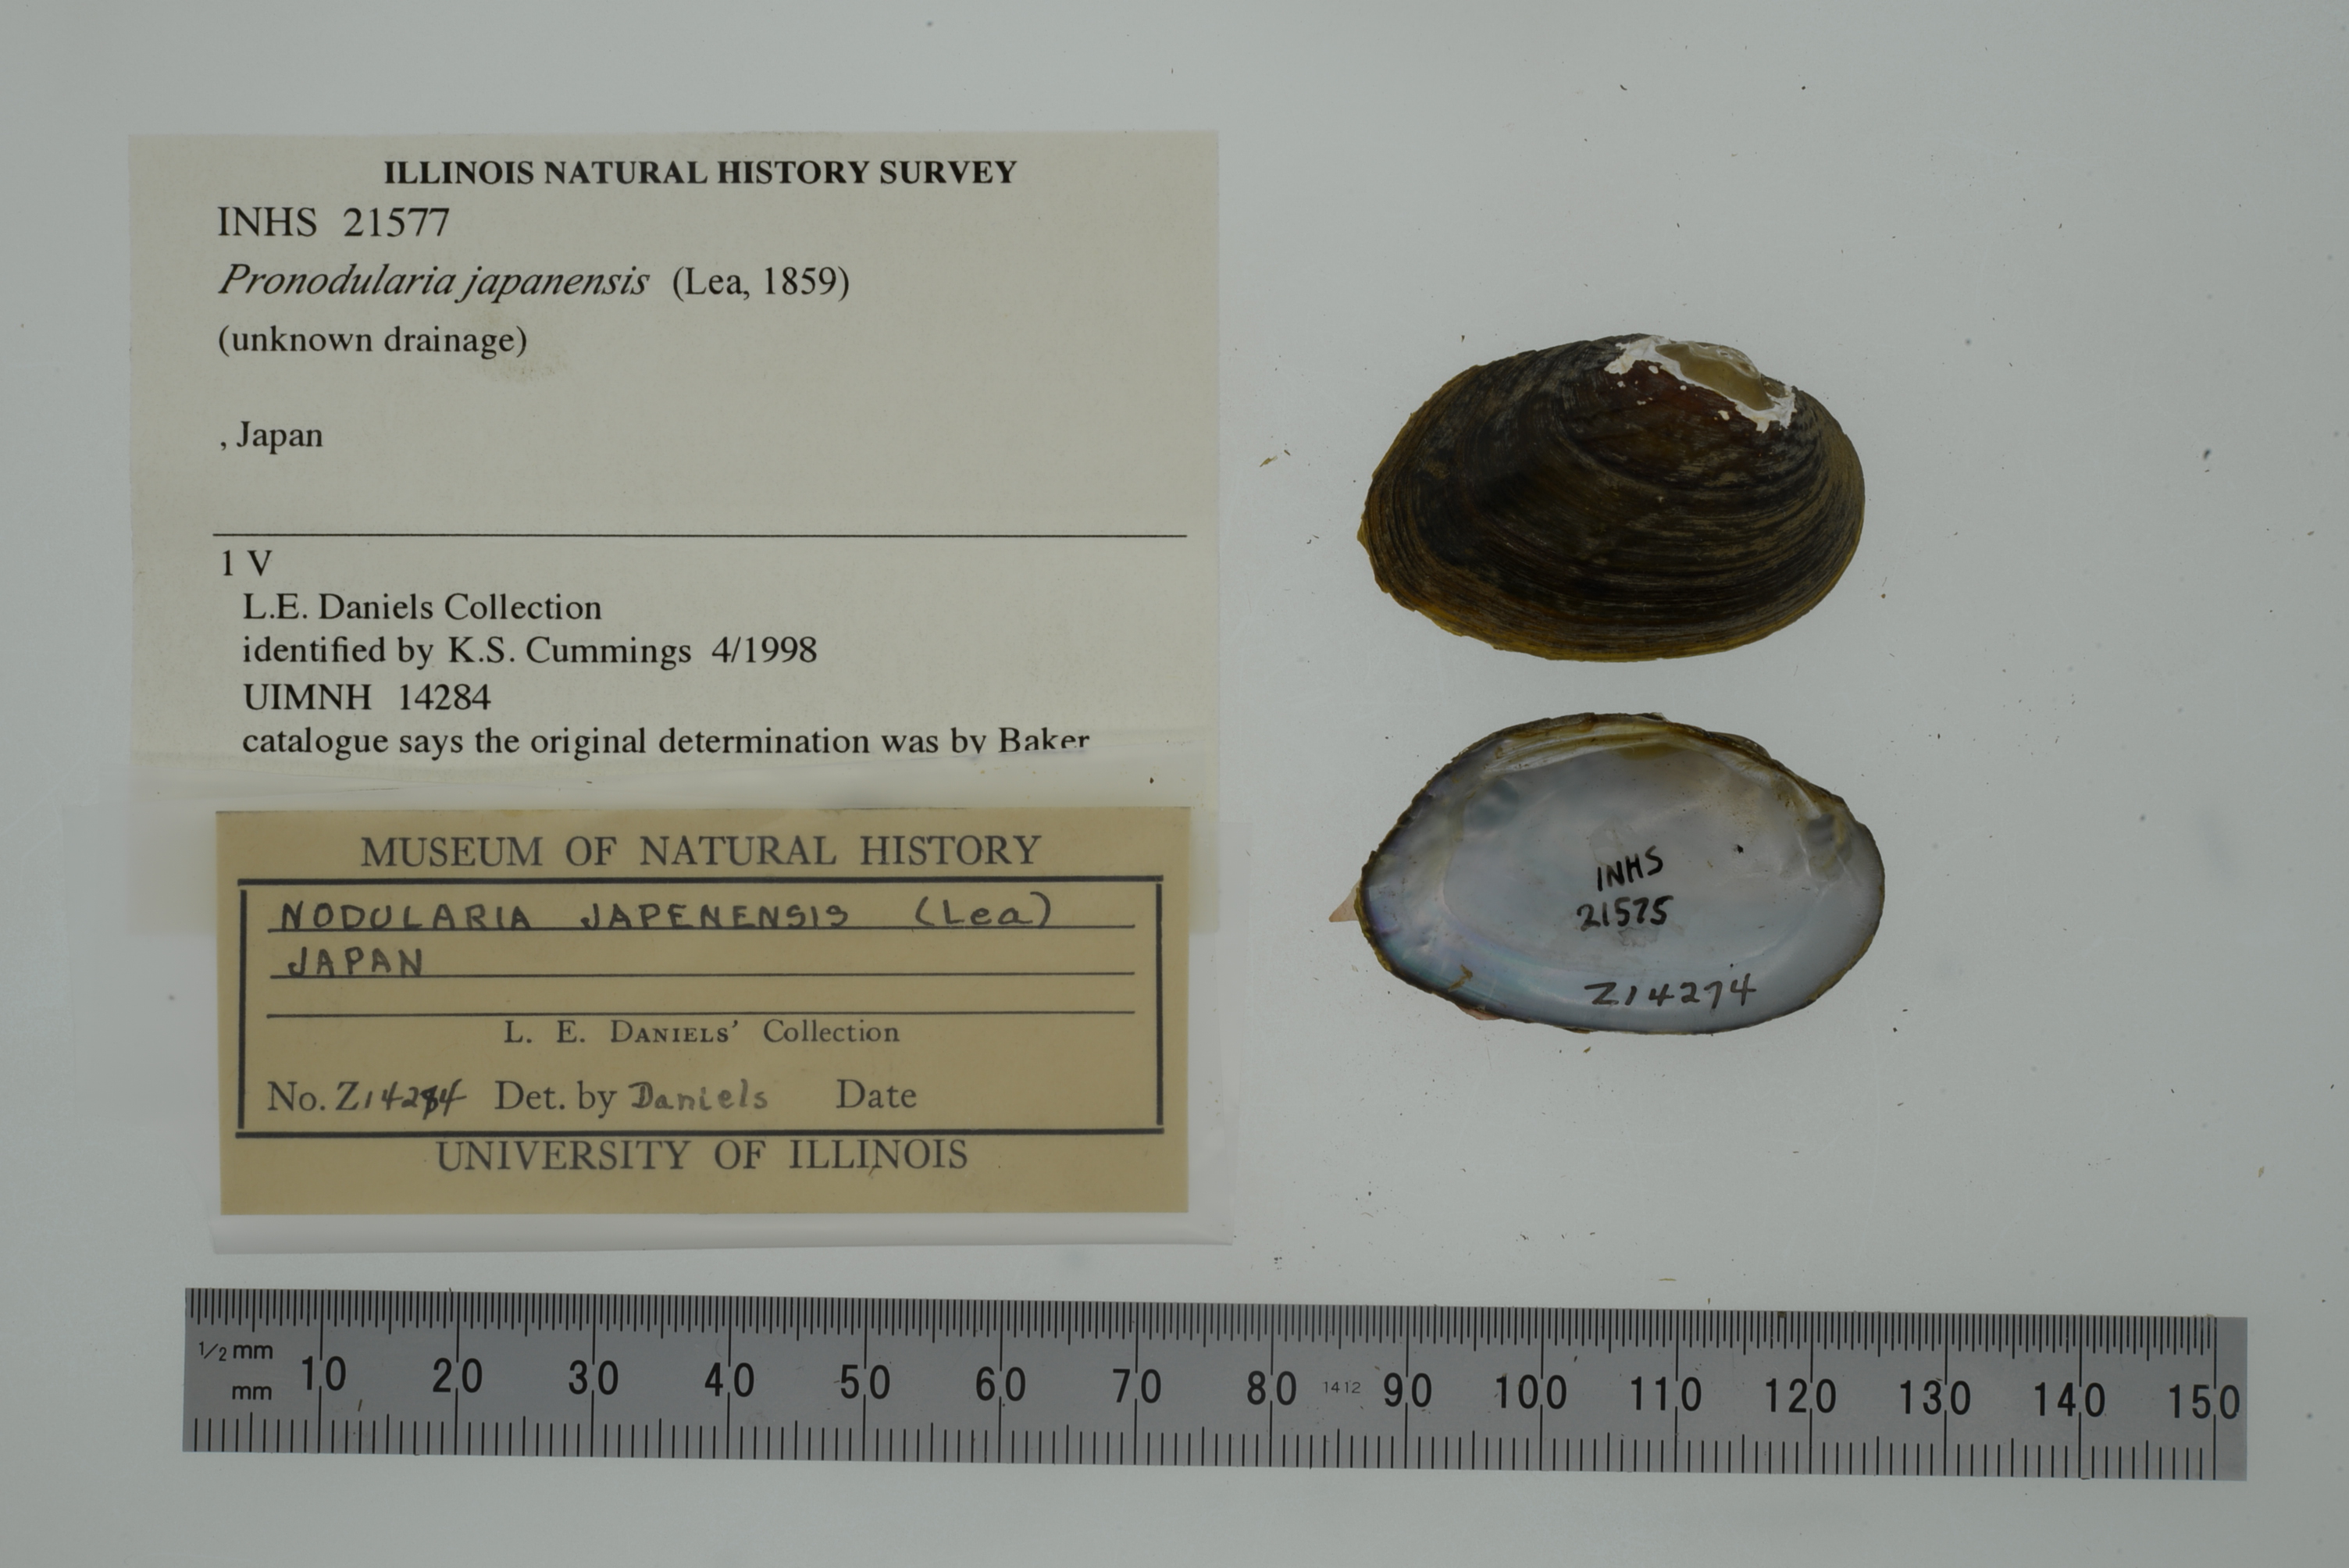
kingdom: Animalia
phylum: Mollusca
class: Bivalvia
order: Unionida
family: Unionidae
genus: Pronodularia
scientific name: Pronodularia japanensis
